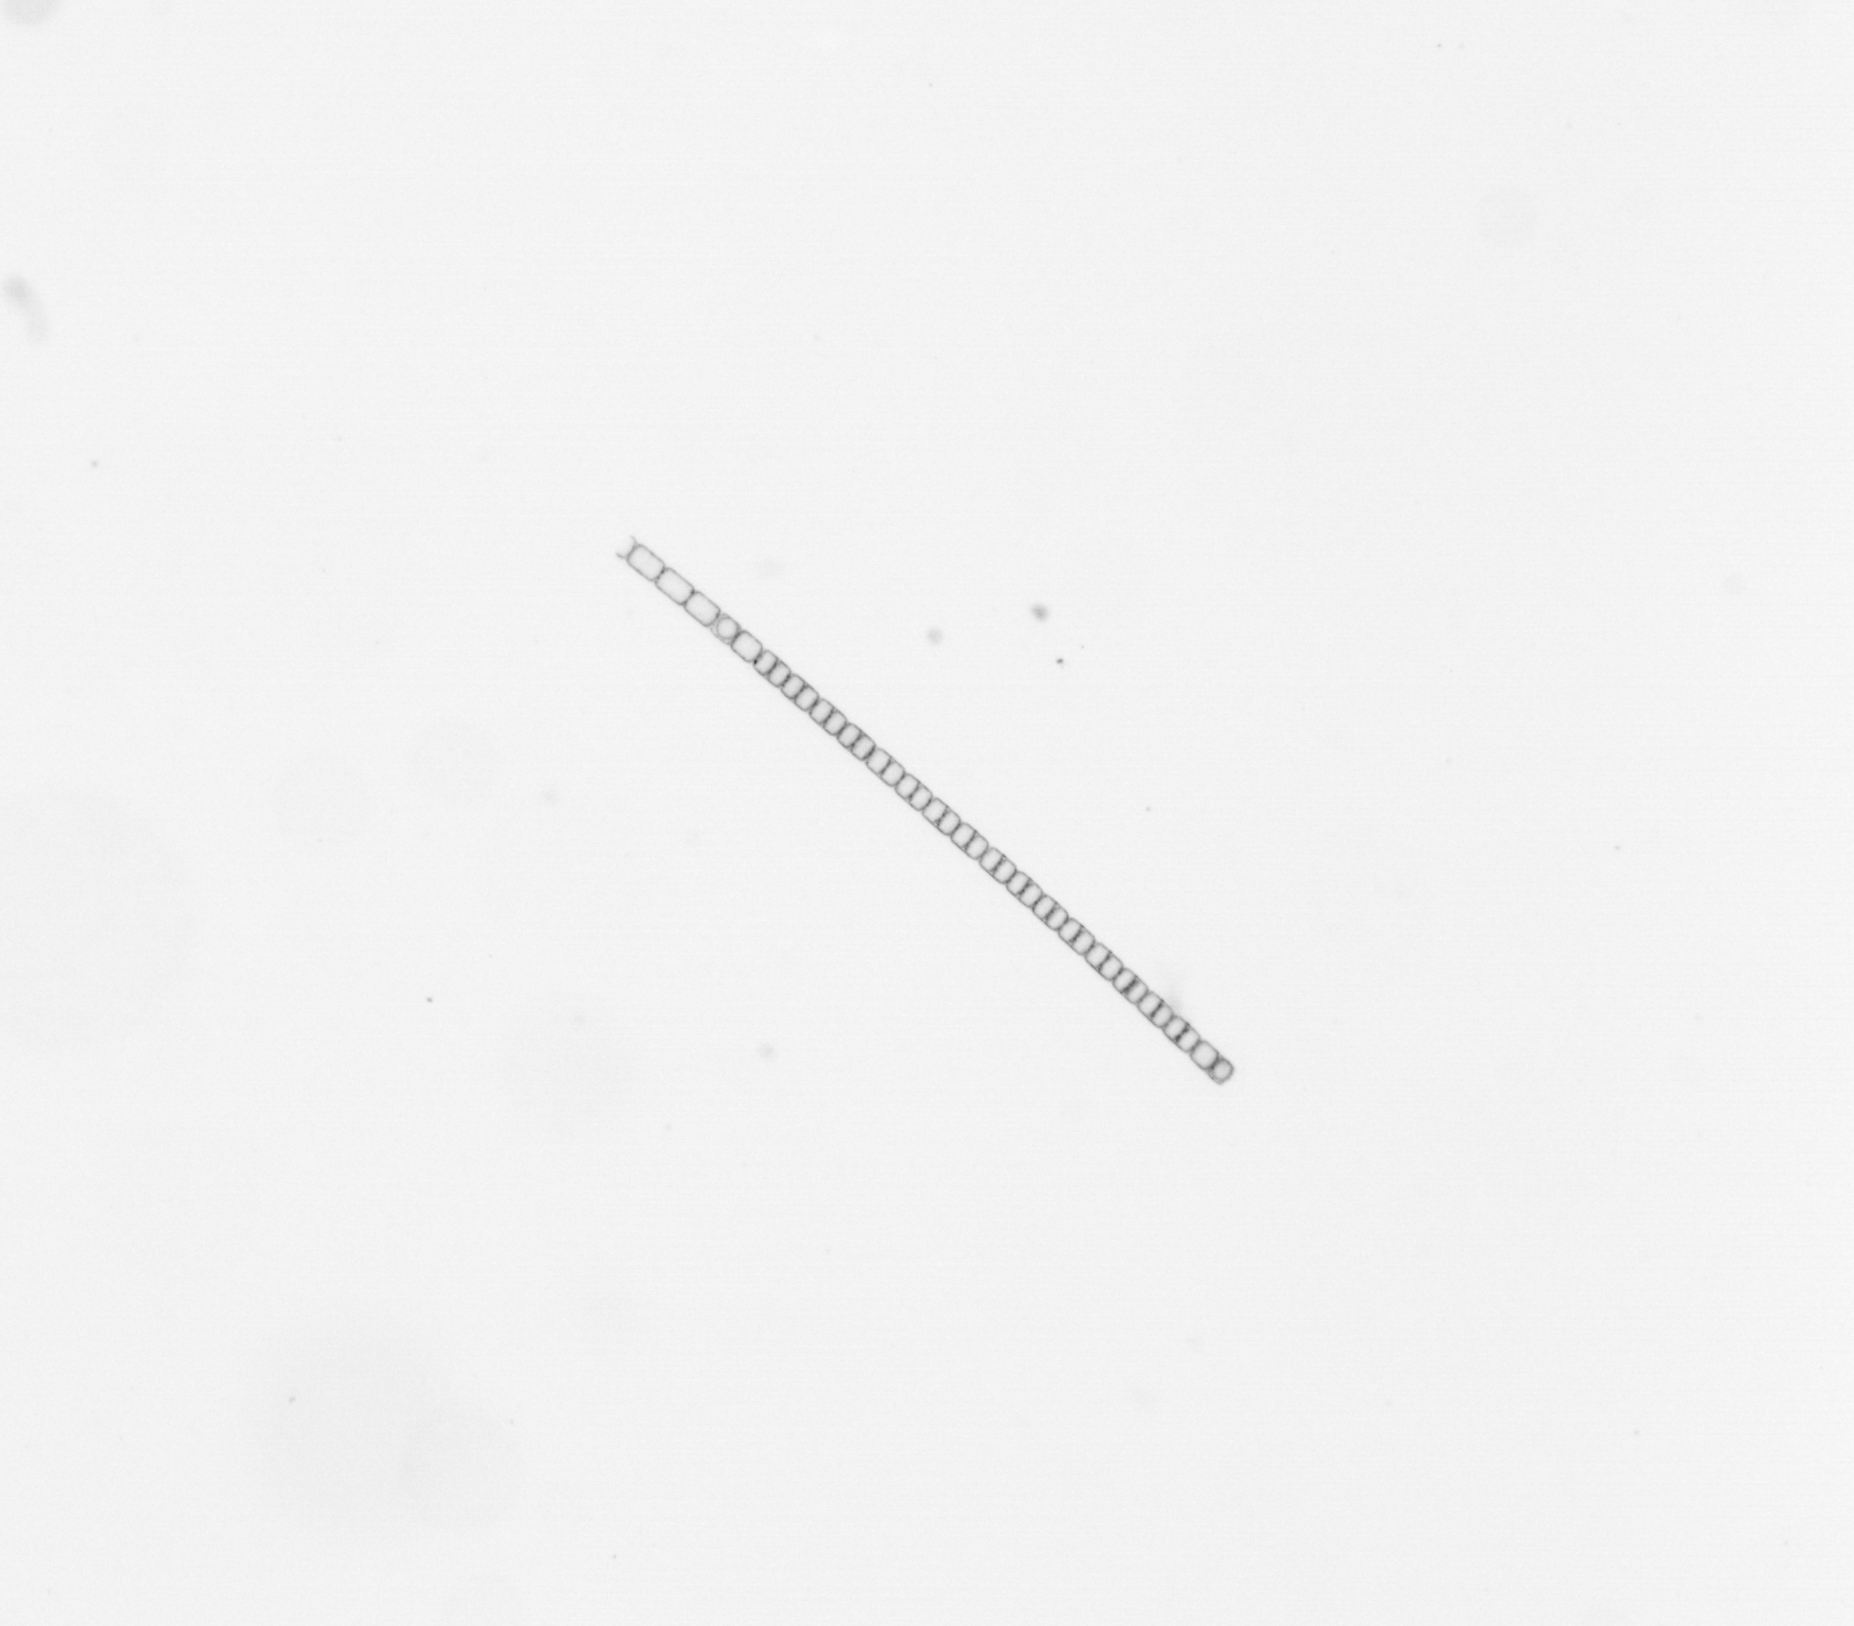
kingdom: Chromista
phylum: Ochrophyta
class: Bacillariophyceae
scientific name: Bacillariophyceae
